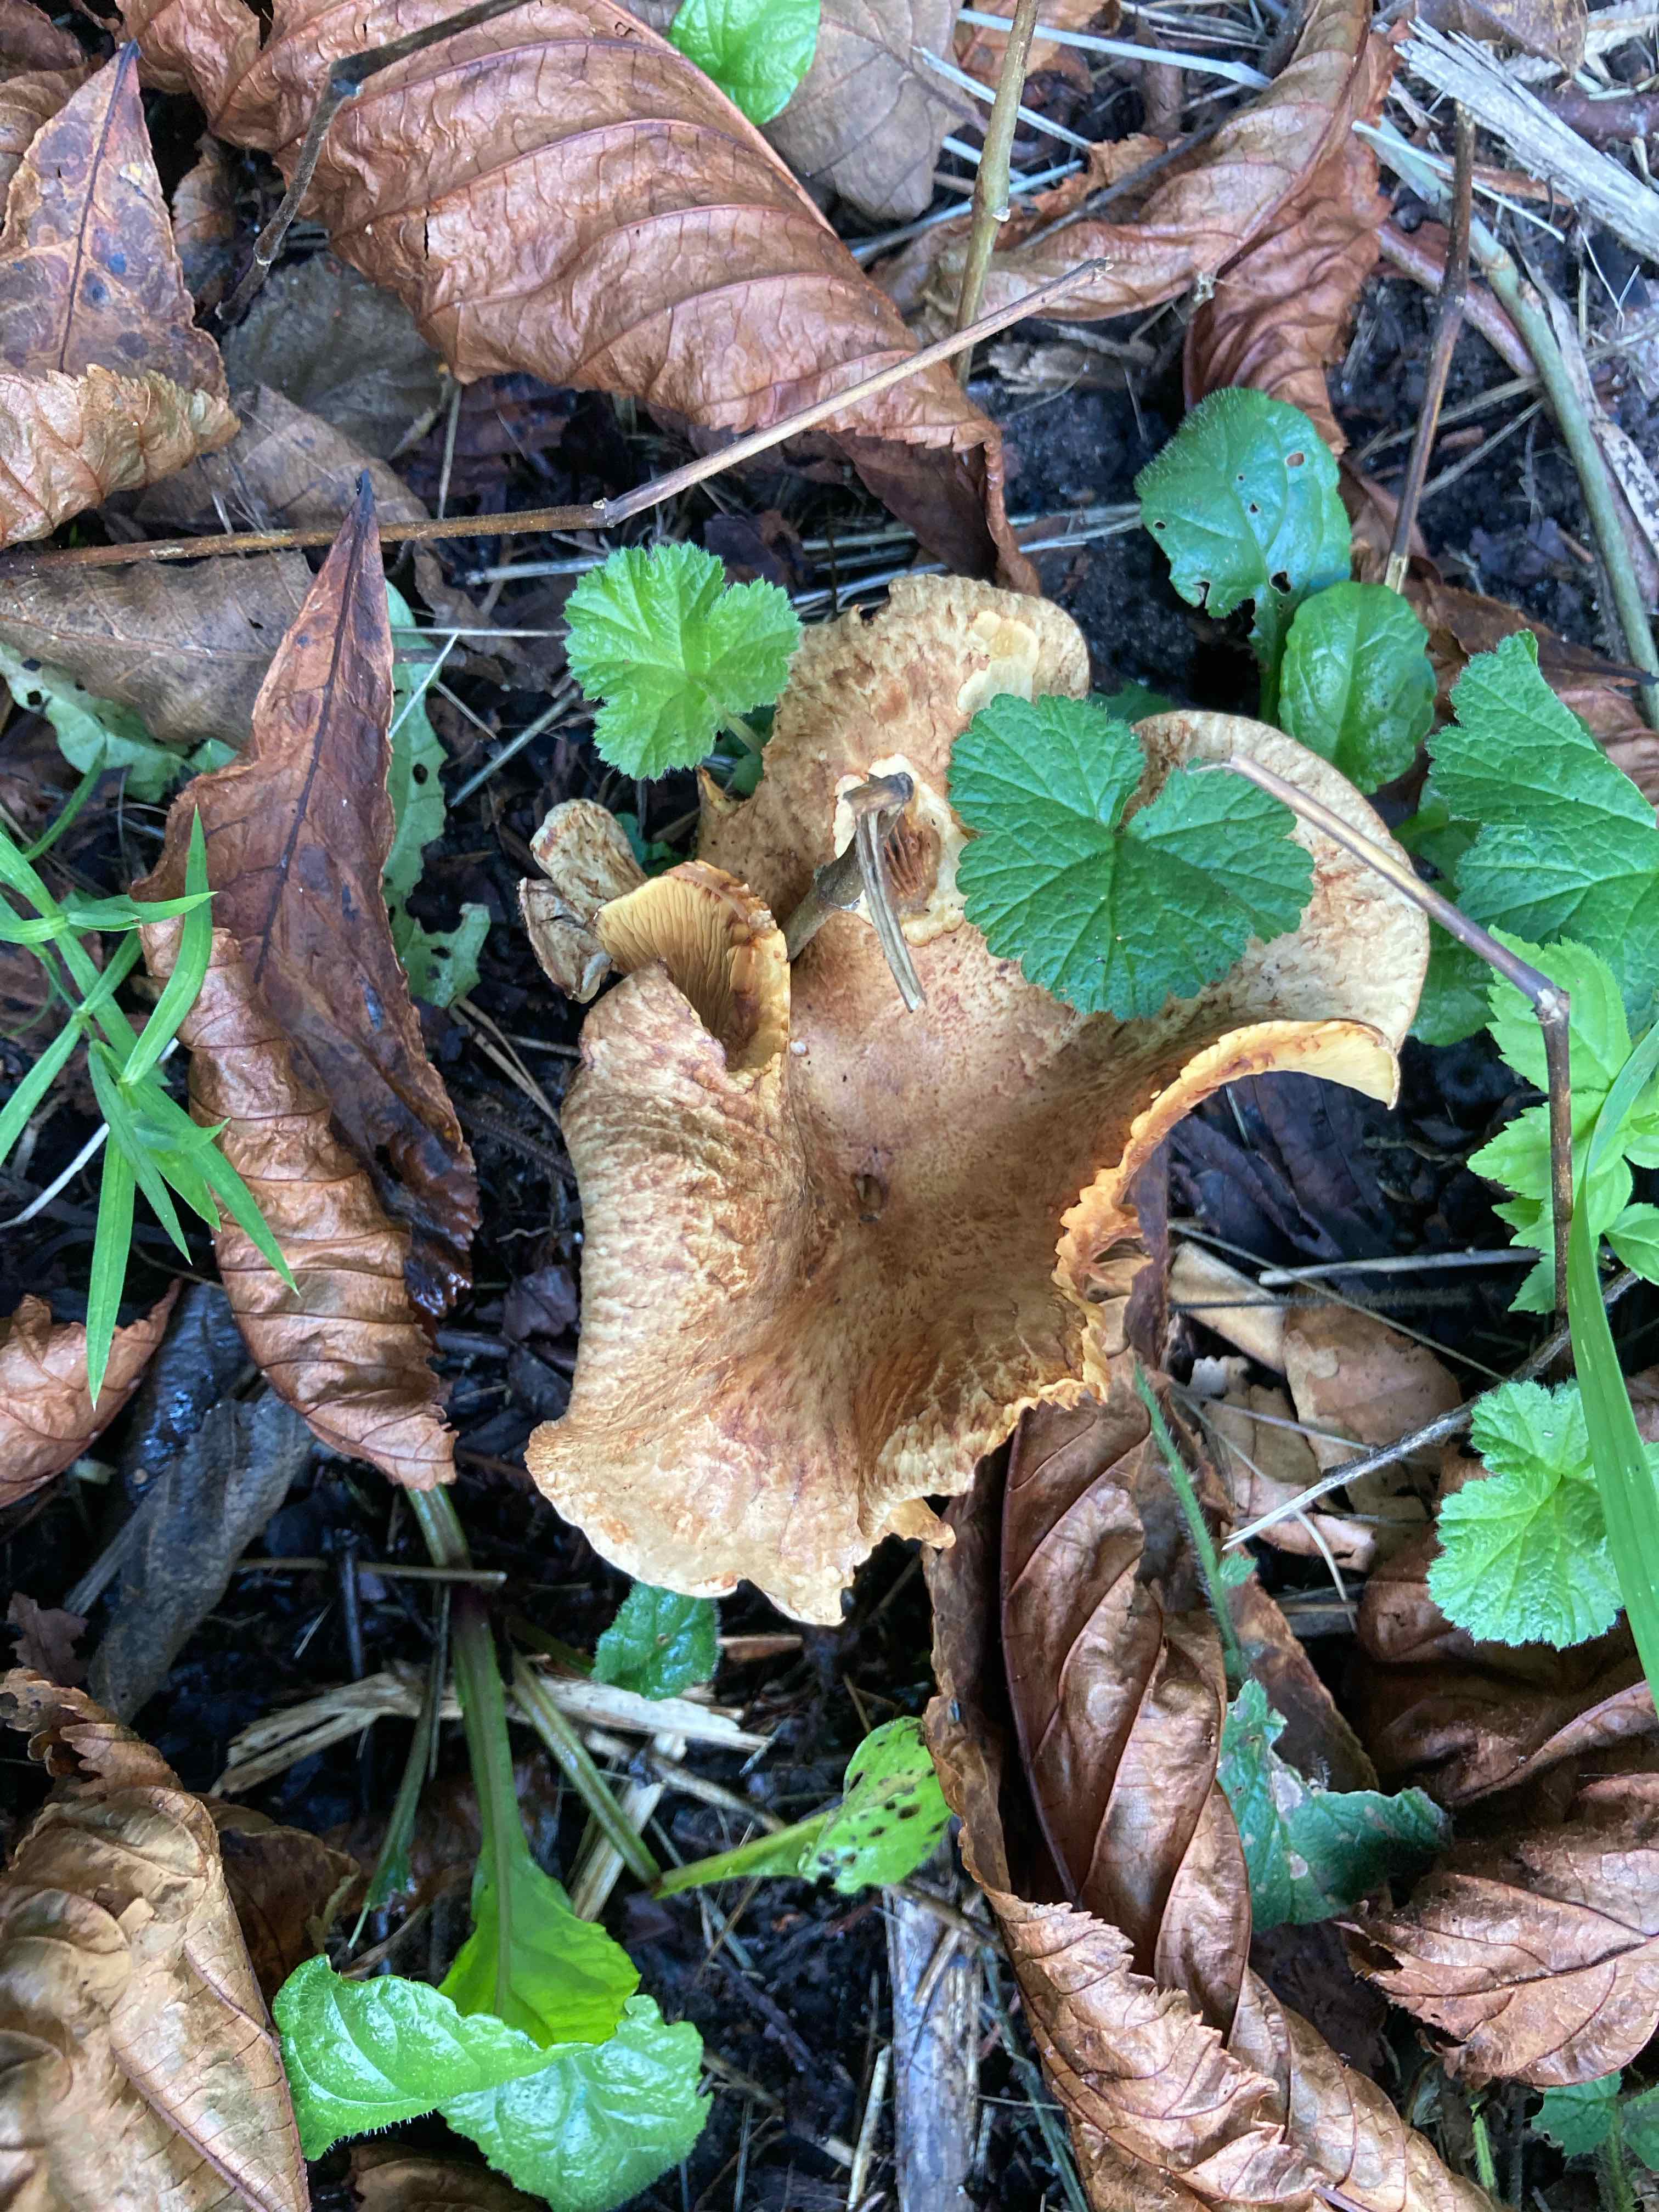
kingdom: Fungi
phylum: Basidiomycota
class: Agaricomycetes
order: Boletales
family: Paxillaceae
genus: Paxillus
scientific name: Paxillus
